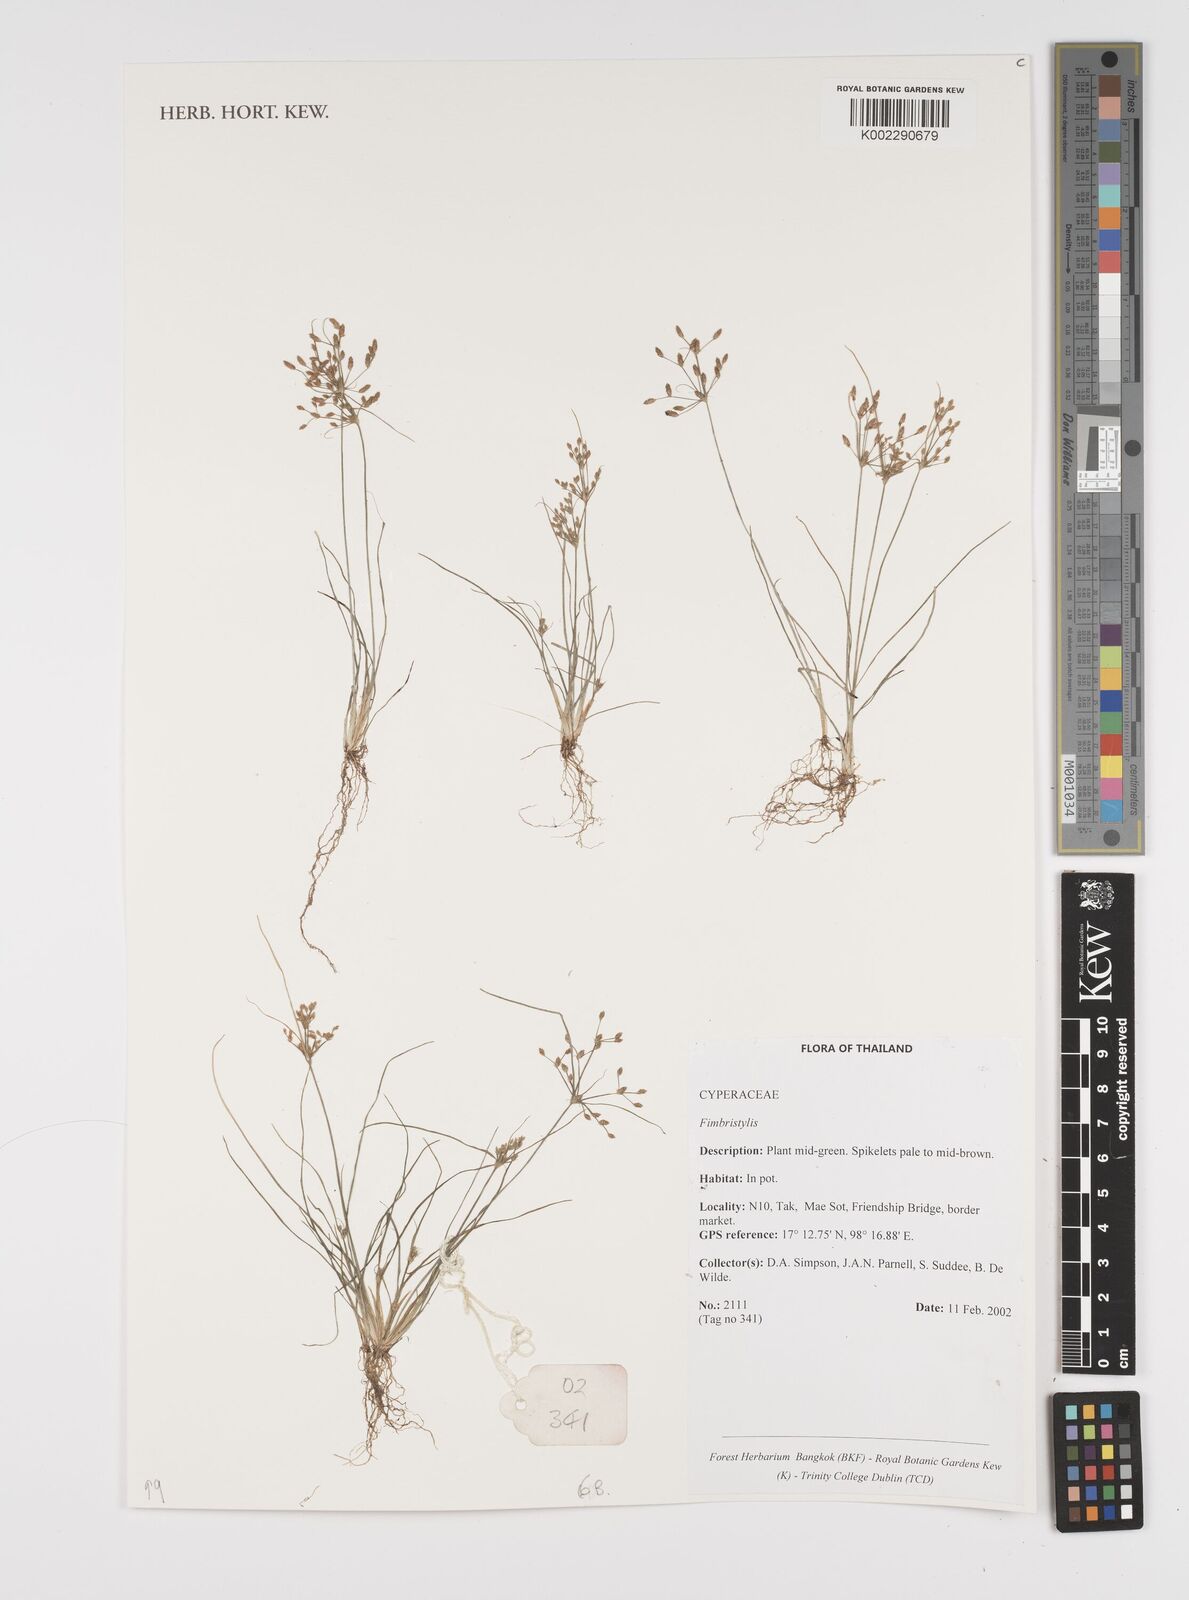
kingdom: Plantae
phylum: Tracheophyta
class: Liliopsida
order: Poales
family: Cyperaceae
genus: Fimbristylis
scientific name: Fimbristylis
